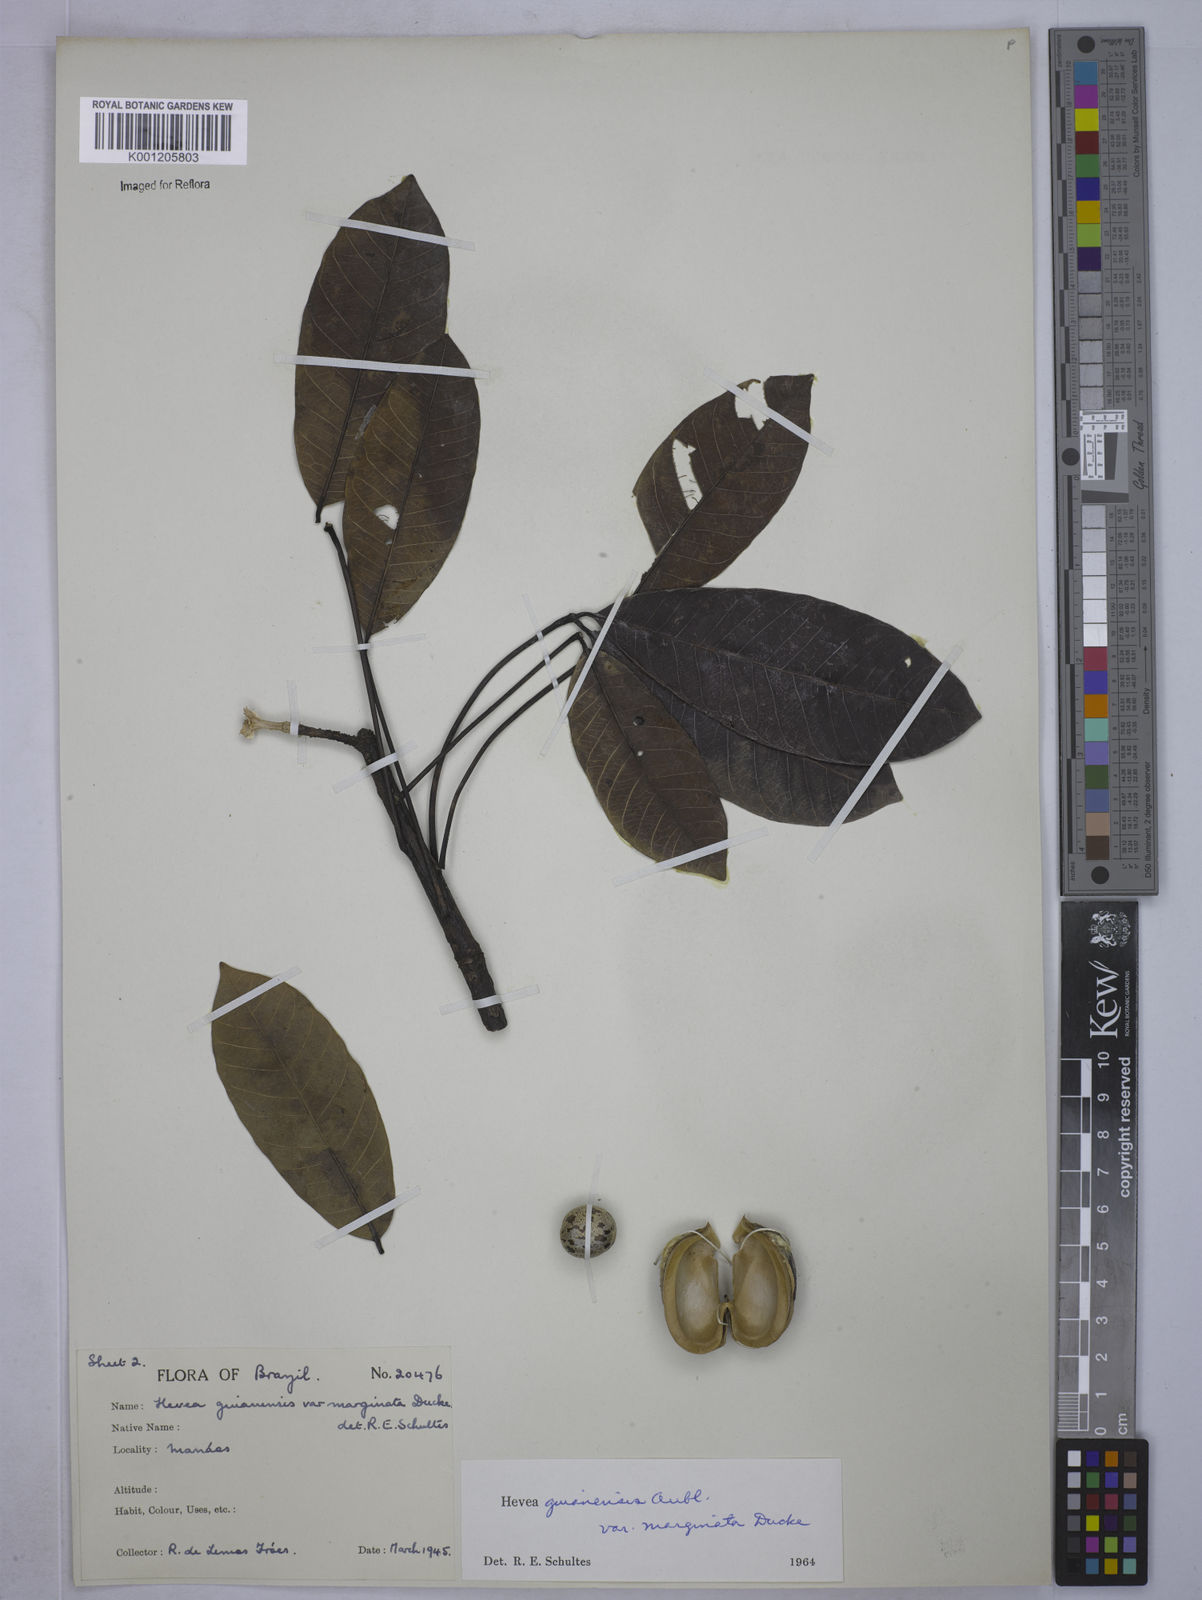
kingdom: Plantae
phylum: Tracheophyta
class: Magnoliopsida
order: Malpighiales
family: Euphorbiaceae
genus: Hevea
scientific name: Hevea guianensis
